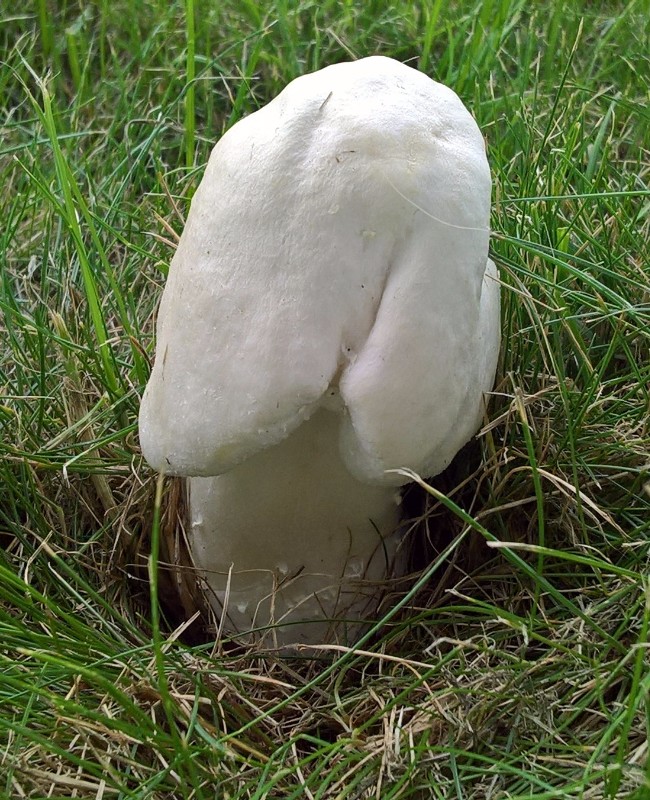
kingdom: Fungi
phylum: Basidiomycota
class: Agaricomycetes
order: Agaricales
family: Agaricaceae
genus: Agaricus
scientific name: Agaricus arvensis
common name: ager-champignon
